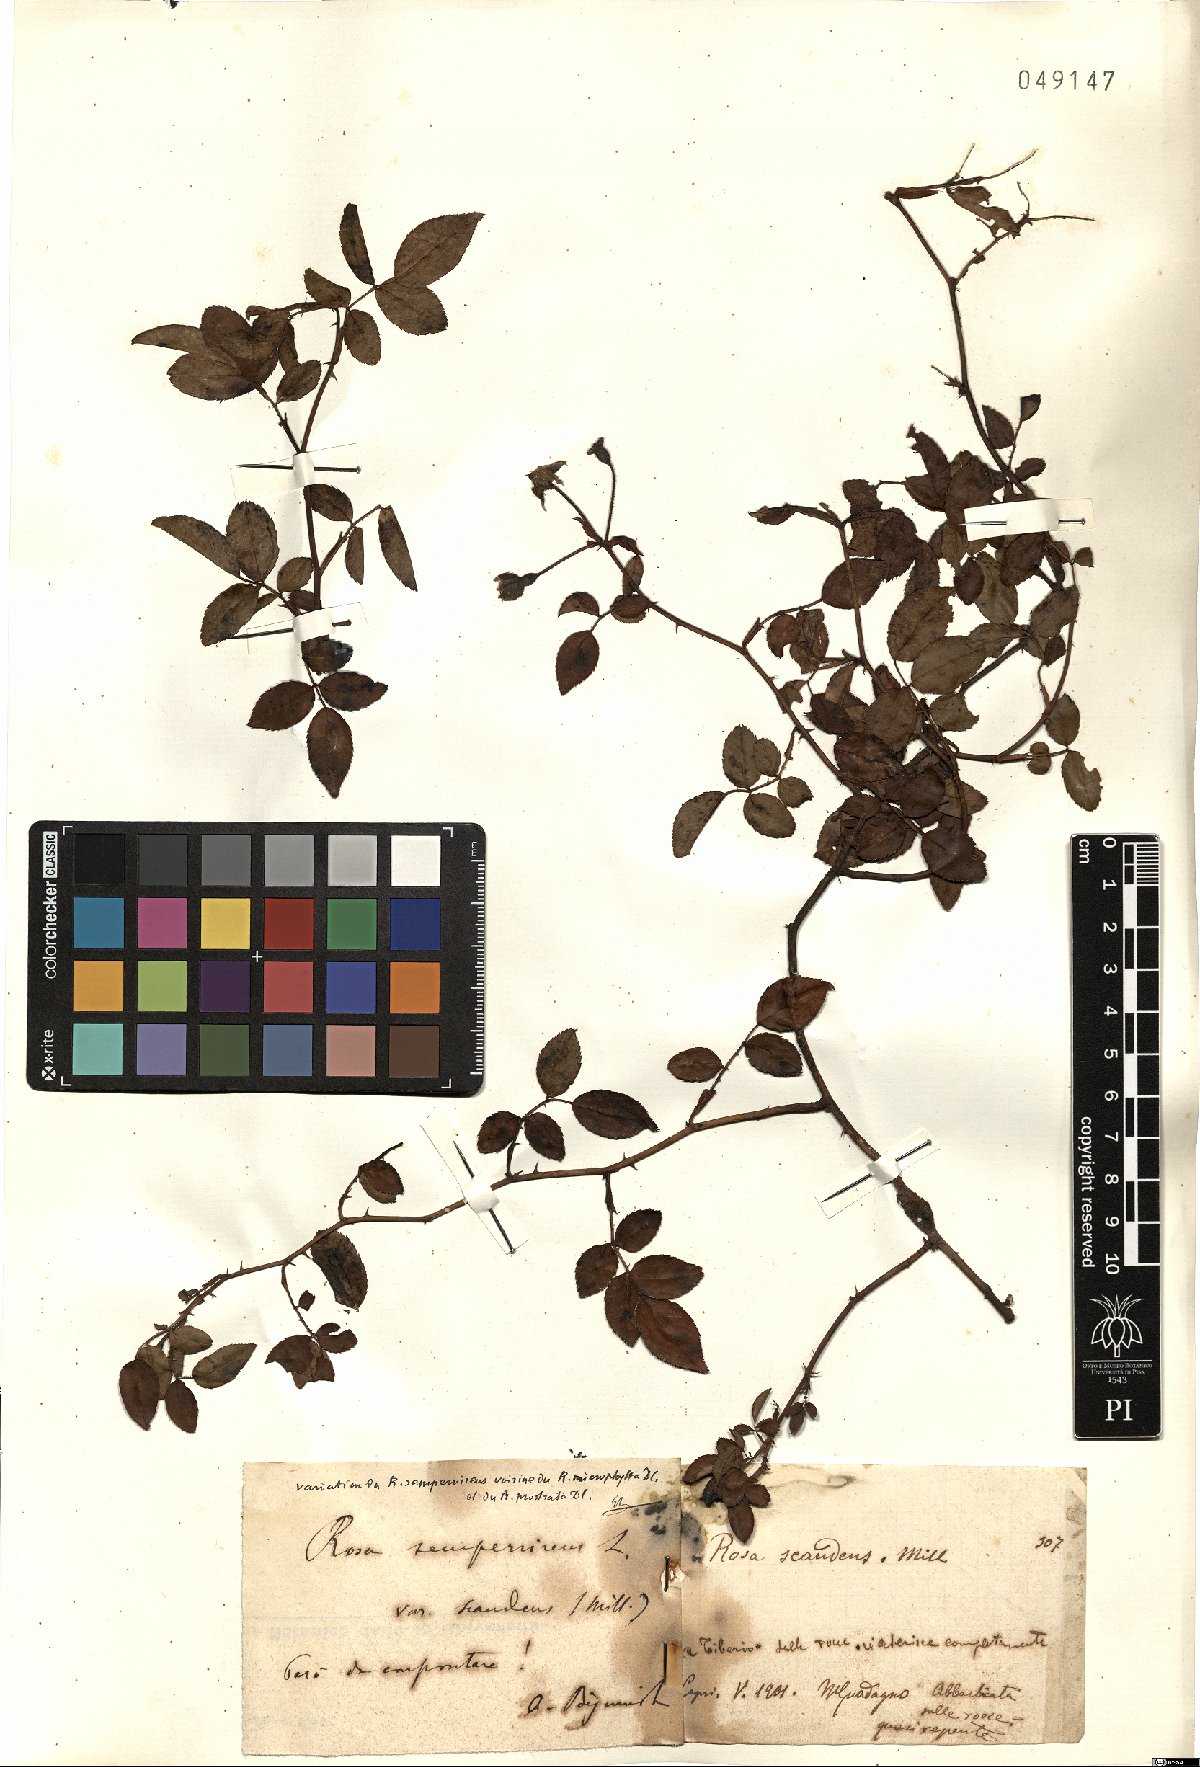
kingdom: Plantae
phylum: Tracheophyta
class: Magnoliopsida
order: Rosales
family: Rosaceae
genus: Rosa
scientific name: Rosa sempervirens
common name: Evergreen rose
